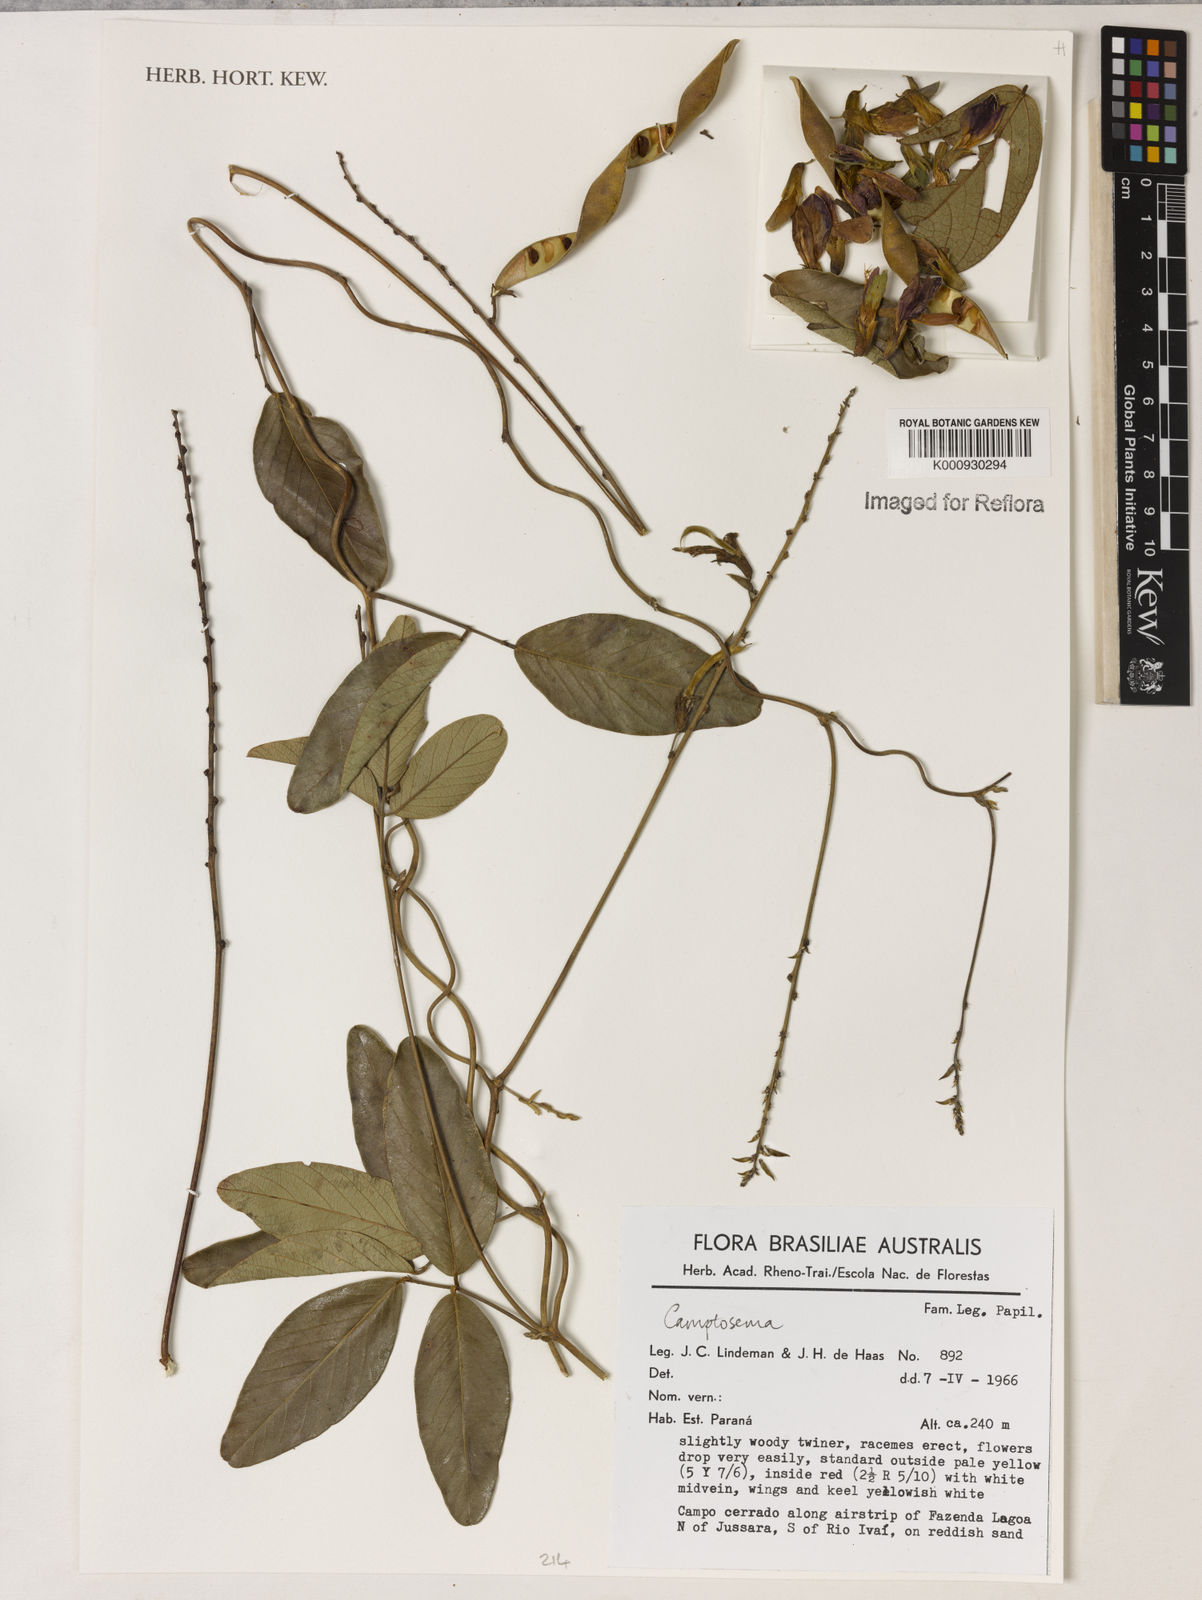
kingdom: Plantae
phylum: Tracheophyta
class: Magnoliopsida
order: Fabales
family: Fabaceae
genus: Camptosema
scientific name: Camptosema
